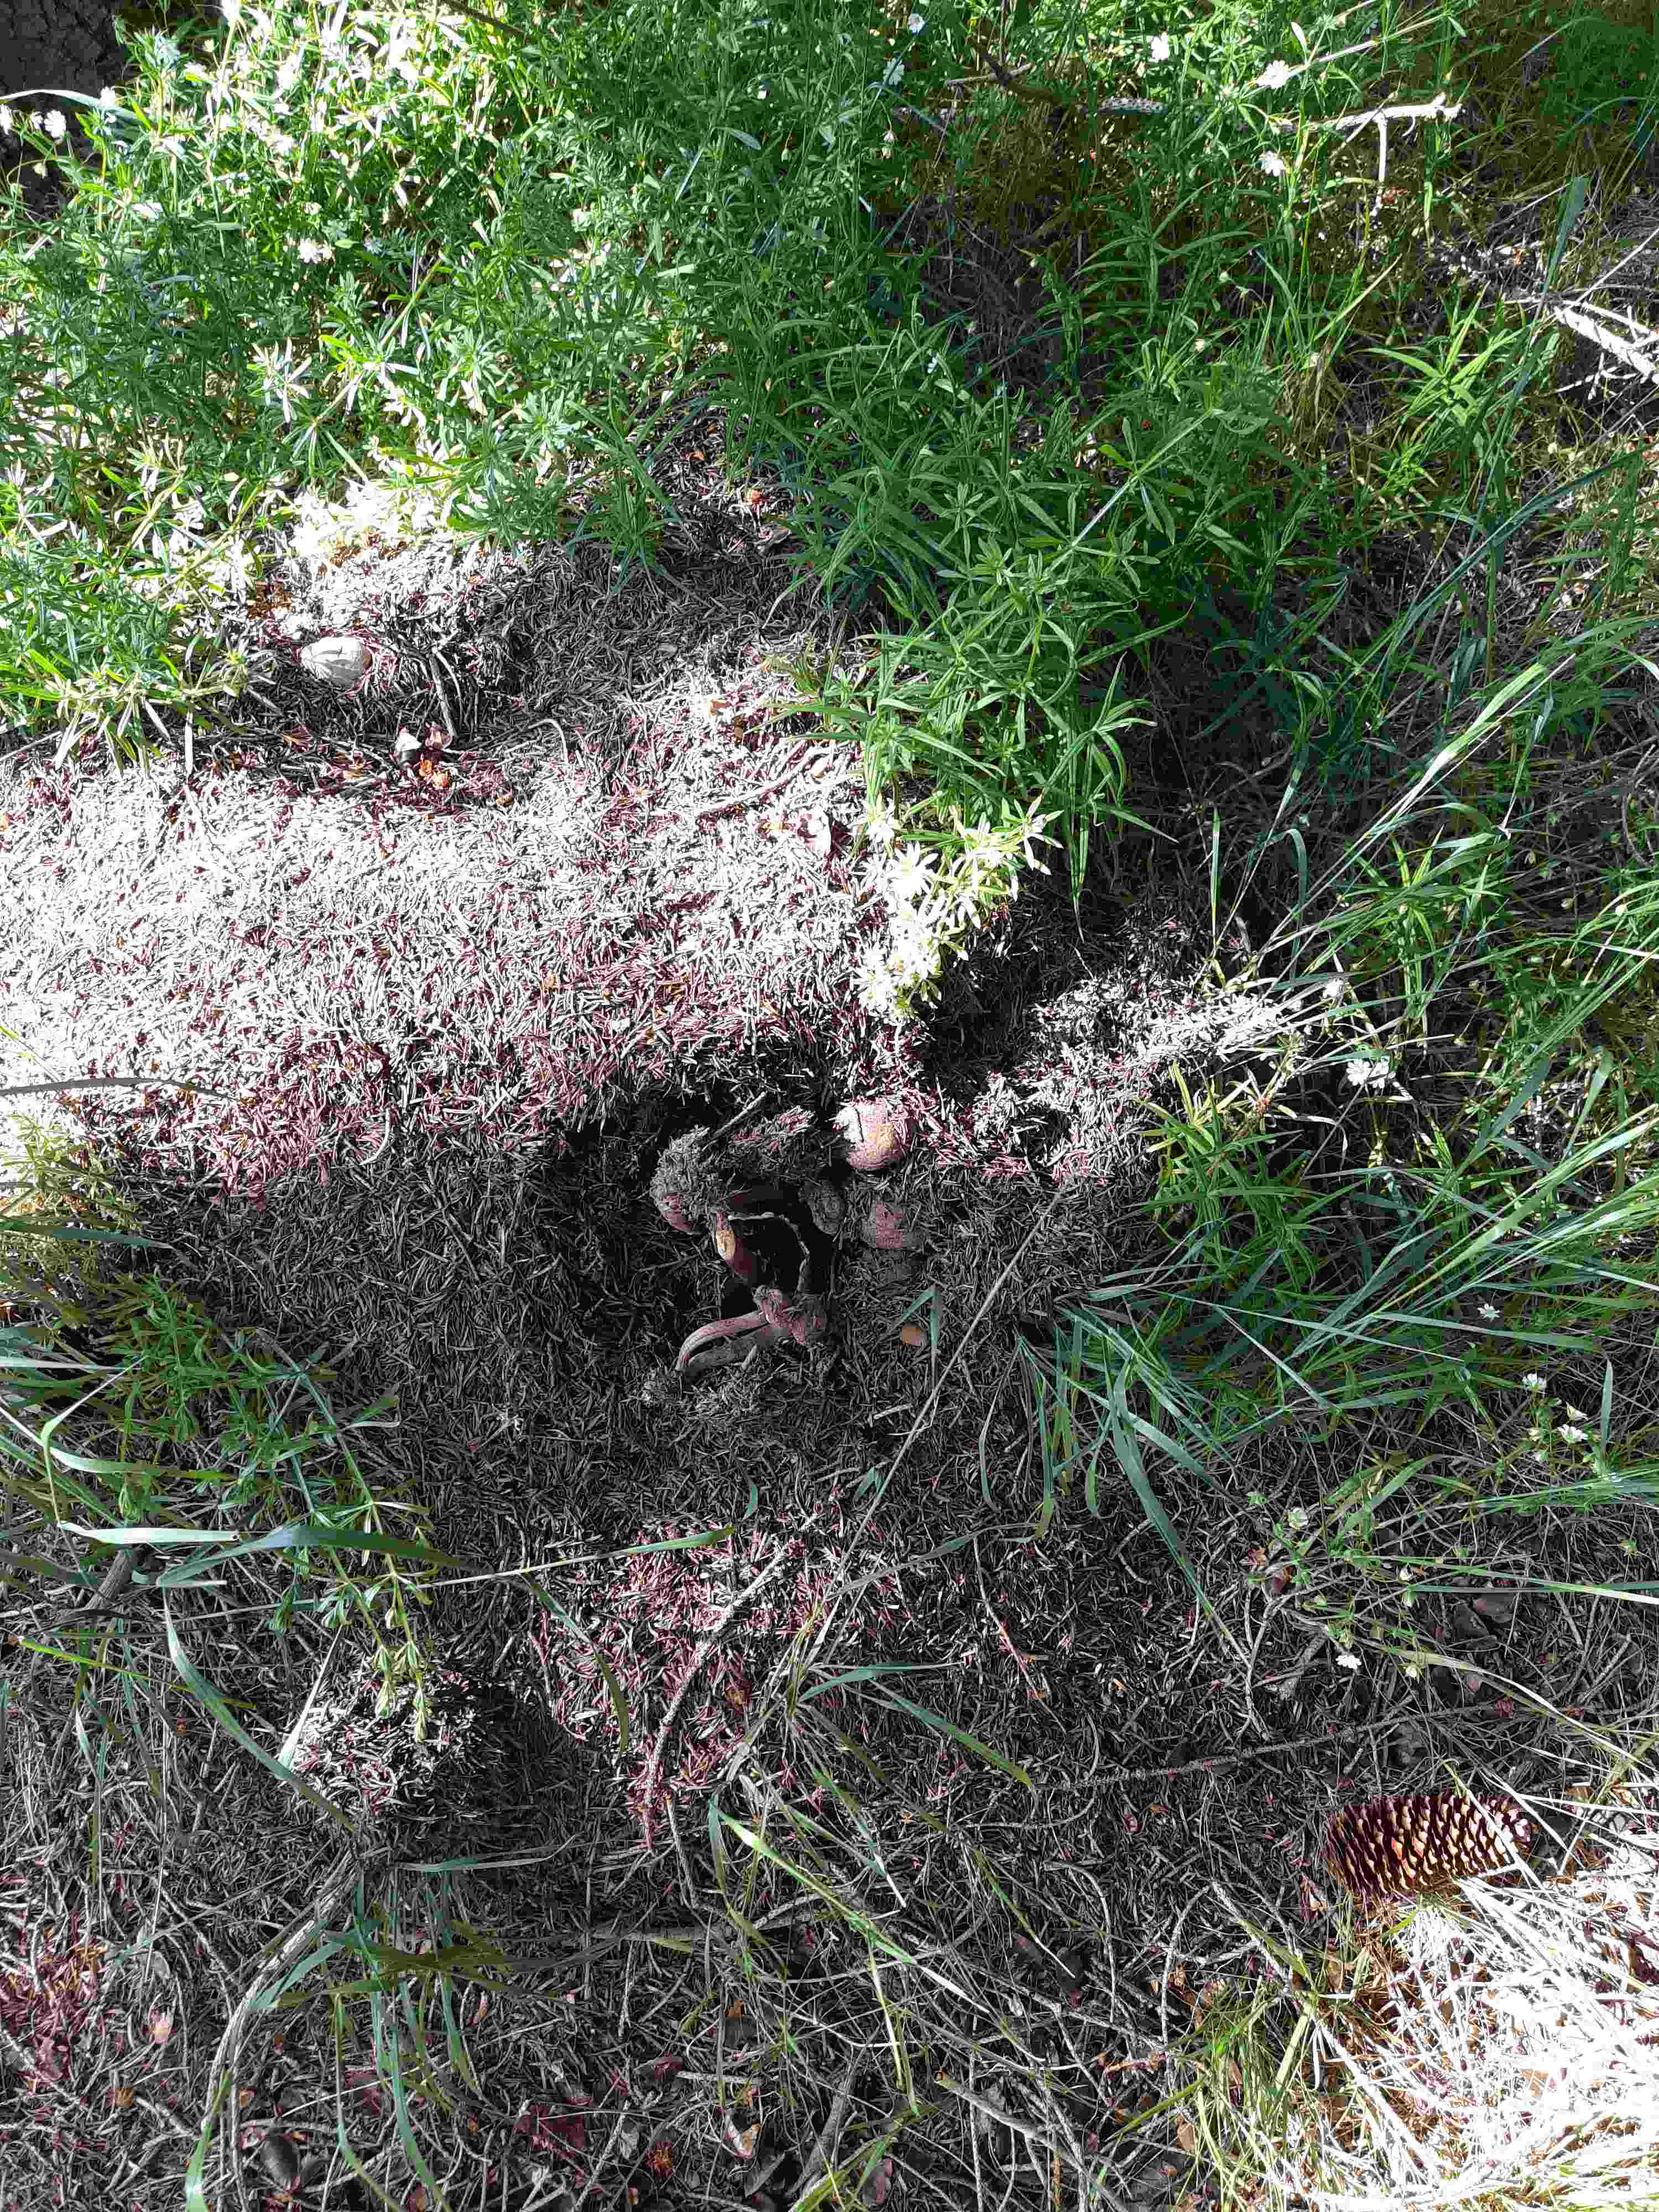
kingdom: Fungi
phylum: Basidiomycota
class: Agaricomycetes
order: Agaricales
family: Agaricaceae
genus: Agaricus
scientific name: Agaricus sylvaticus
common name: lille blod-champignon
